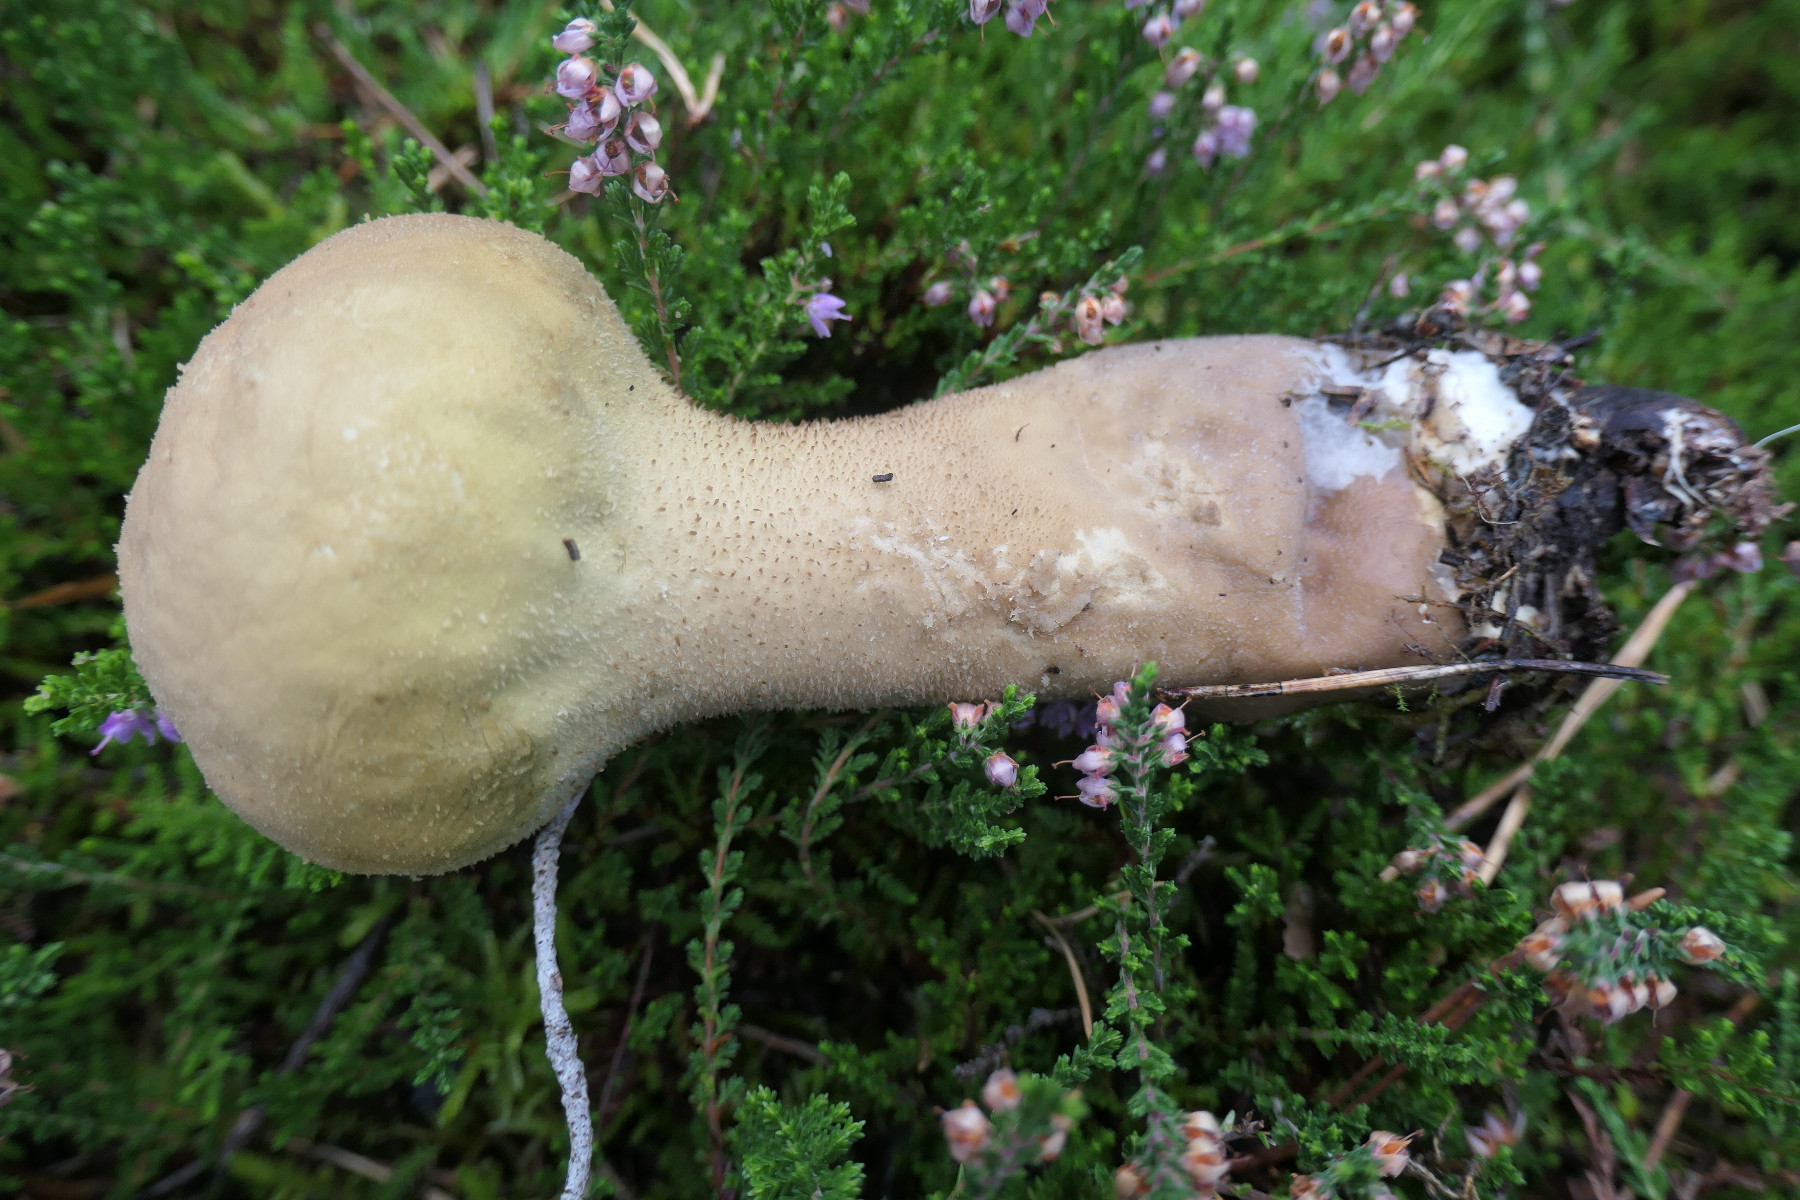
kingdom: Fungi
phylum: Basidiomycota
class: Agaricomycetes
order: Agaricales
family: Lycoperdaceae
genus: Lycoperdon
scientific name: Lycoperdon excipuliforme
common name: højstokket støvbold
